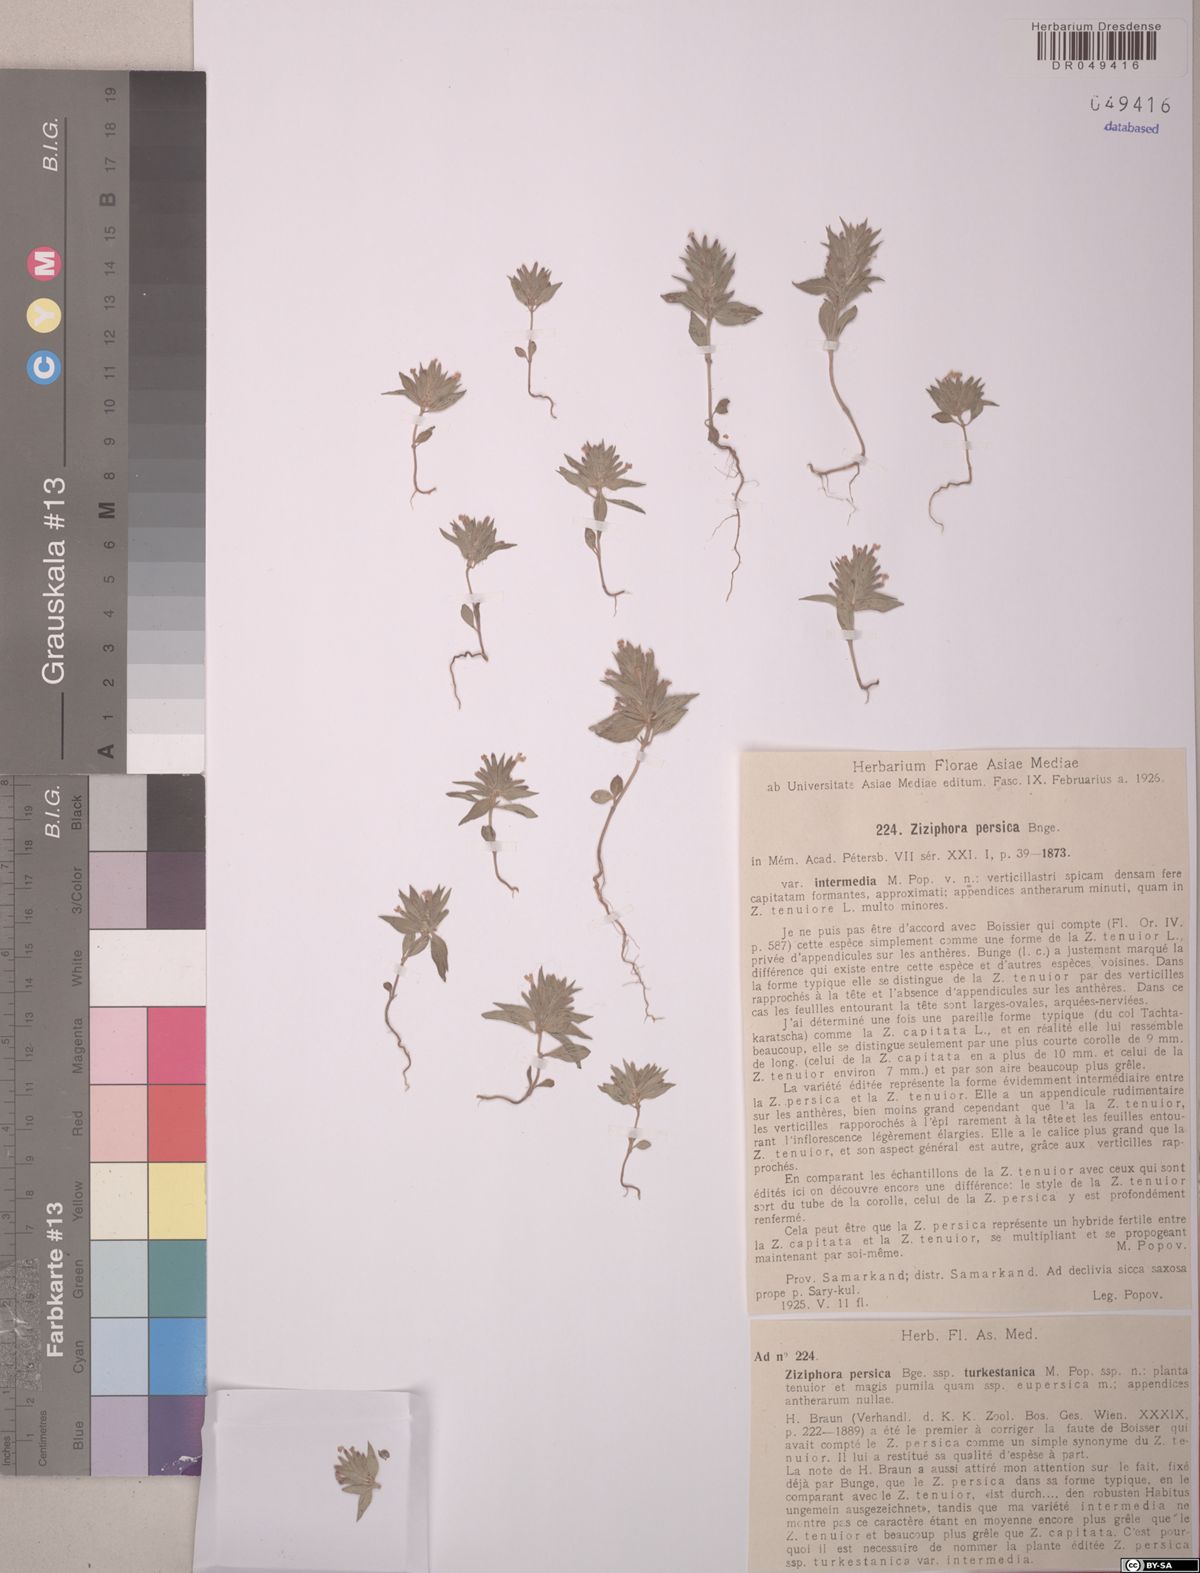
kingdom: Plantae
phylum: Tracheophyta
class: Magnoliopsida
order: Lamiales
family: Lamiaceae
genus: Ziziphora
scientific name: Ziziphora persica
